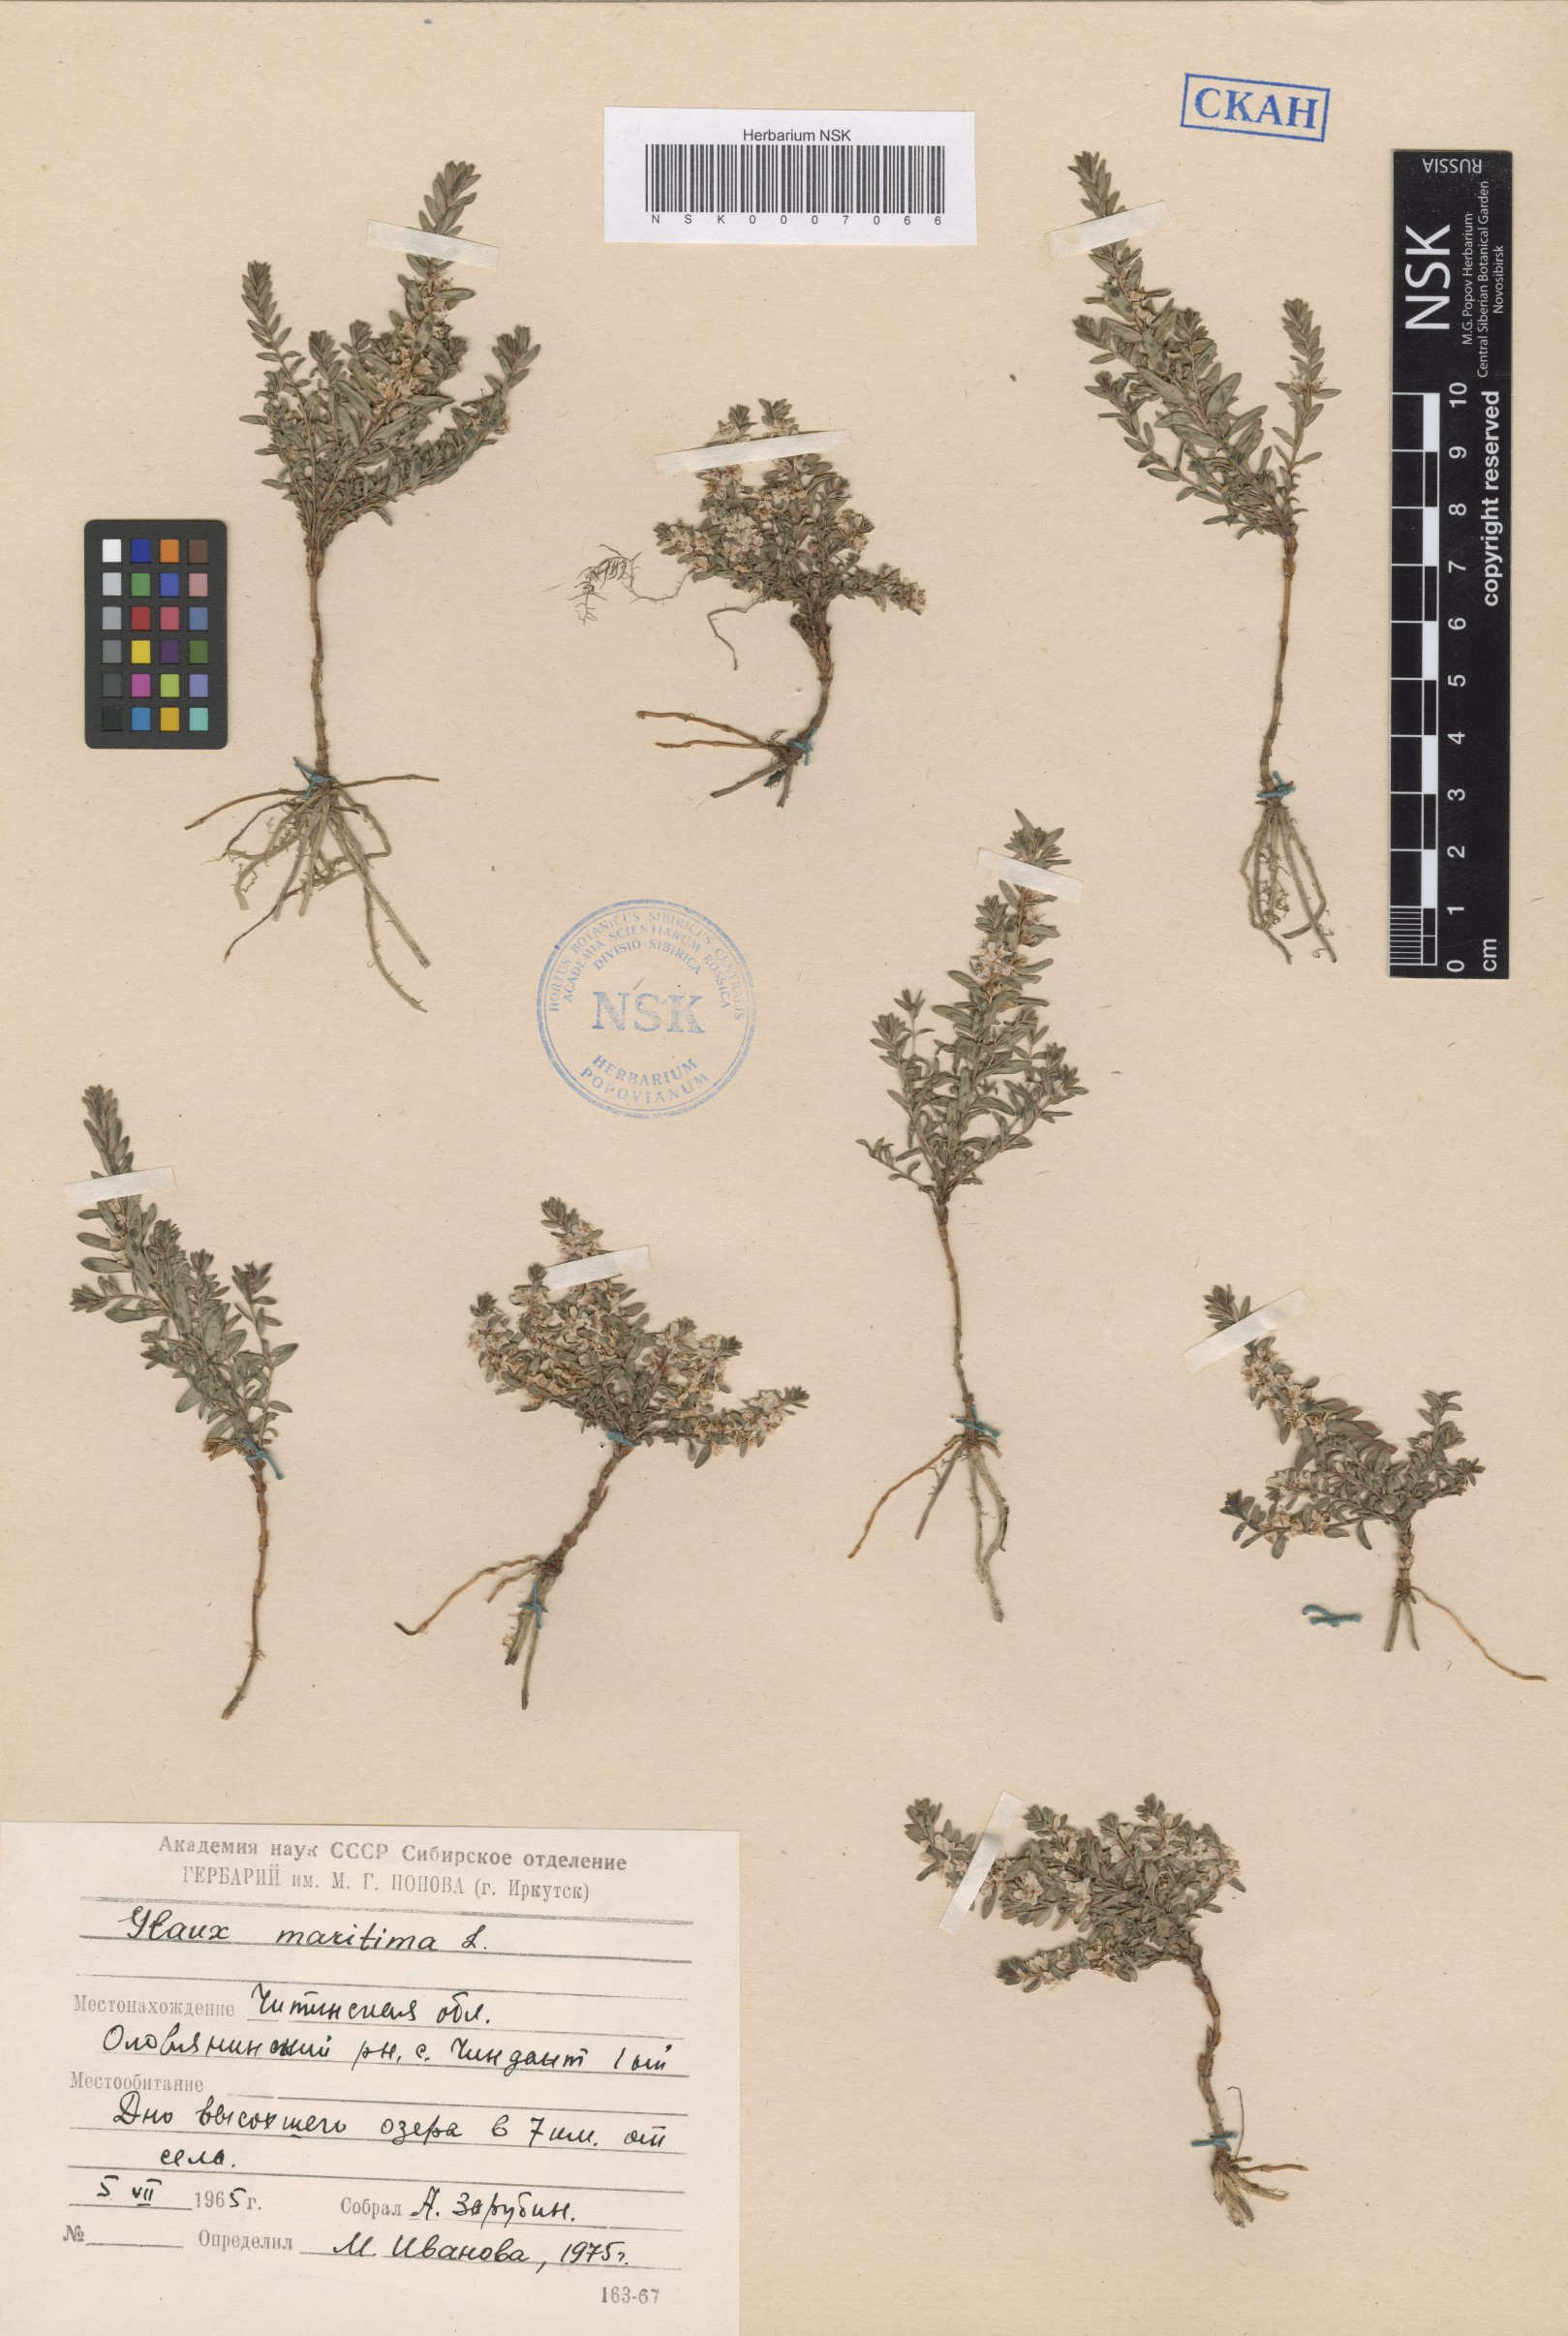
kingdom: Plantae
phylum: Tracheophyta
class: Magnoliopsida
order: Ericales
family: Primulaceae
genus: Lysimachia
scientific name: Lysimachia maritima
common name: Sea milkwort
